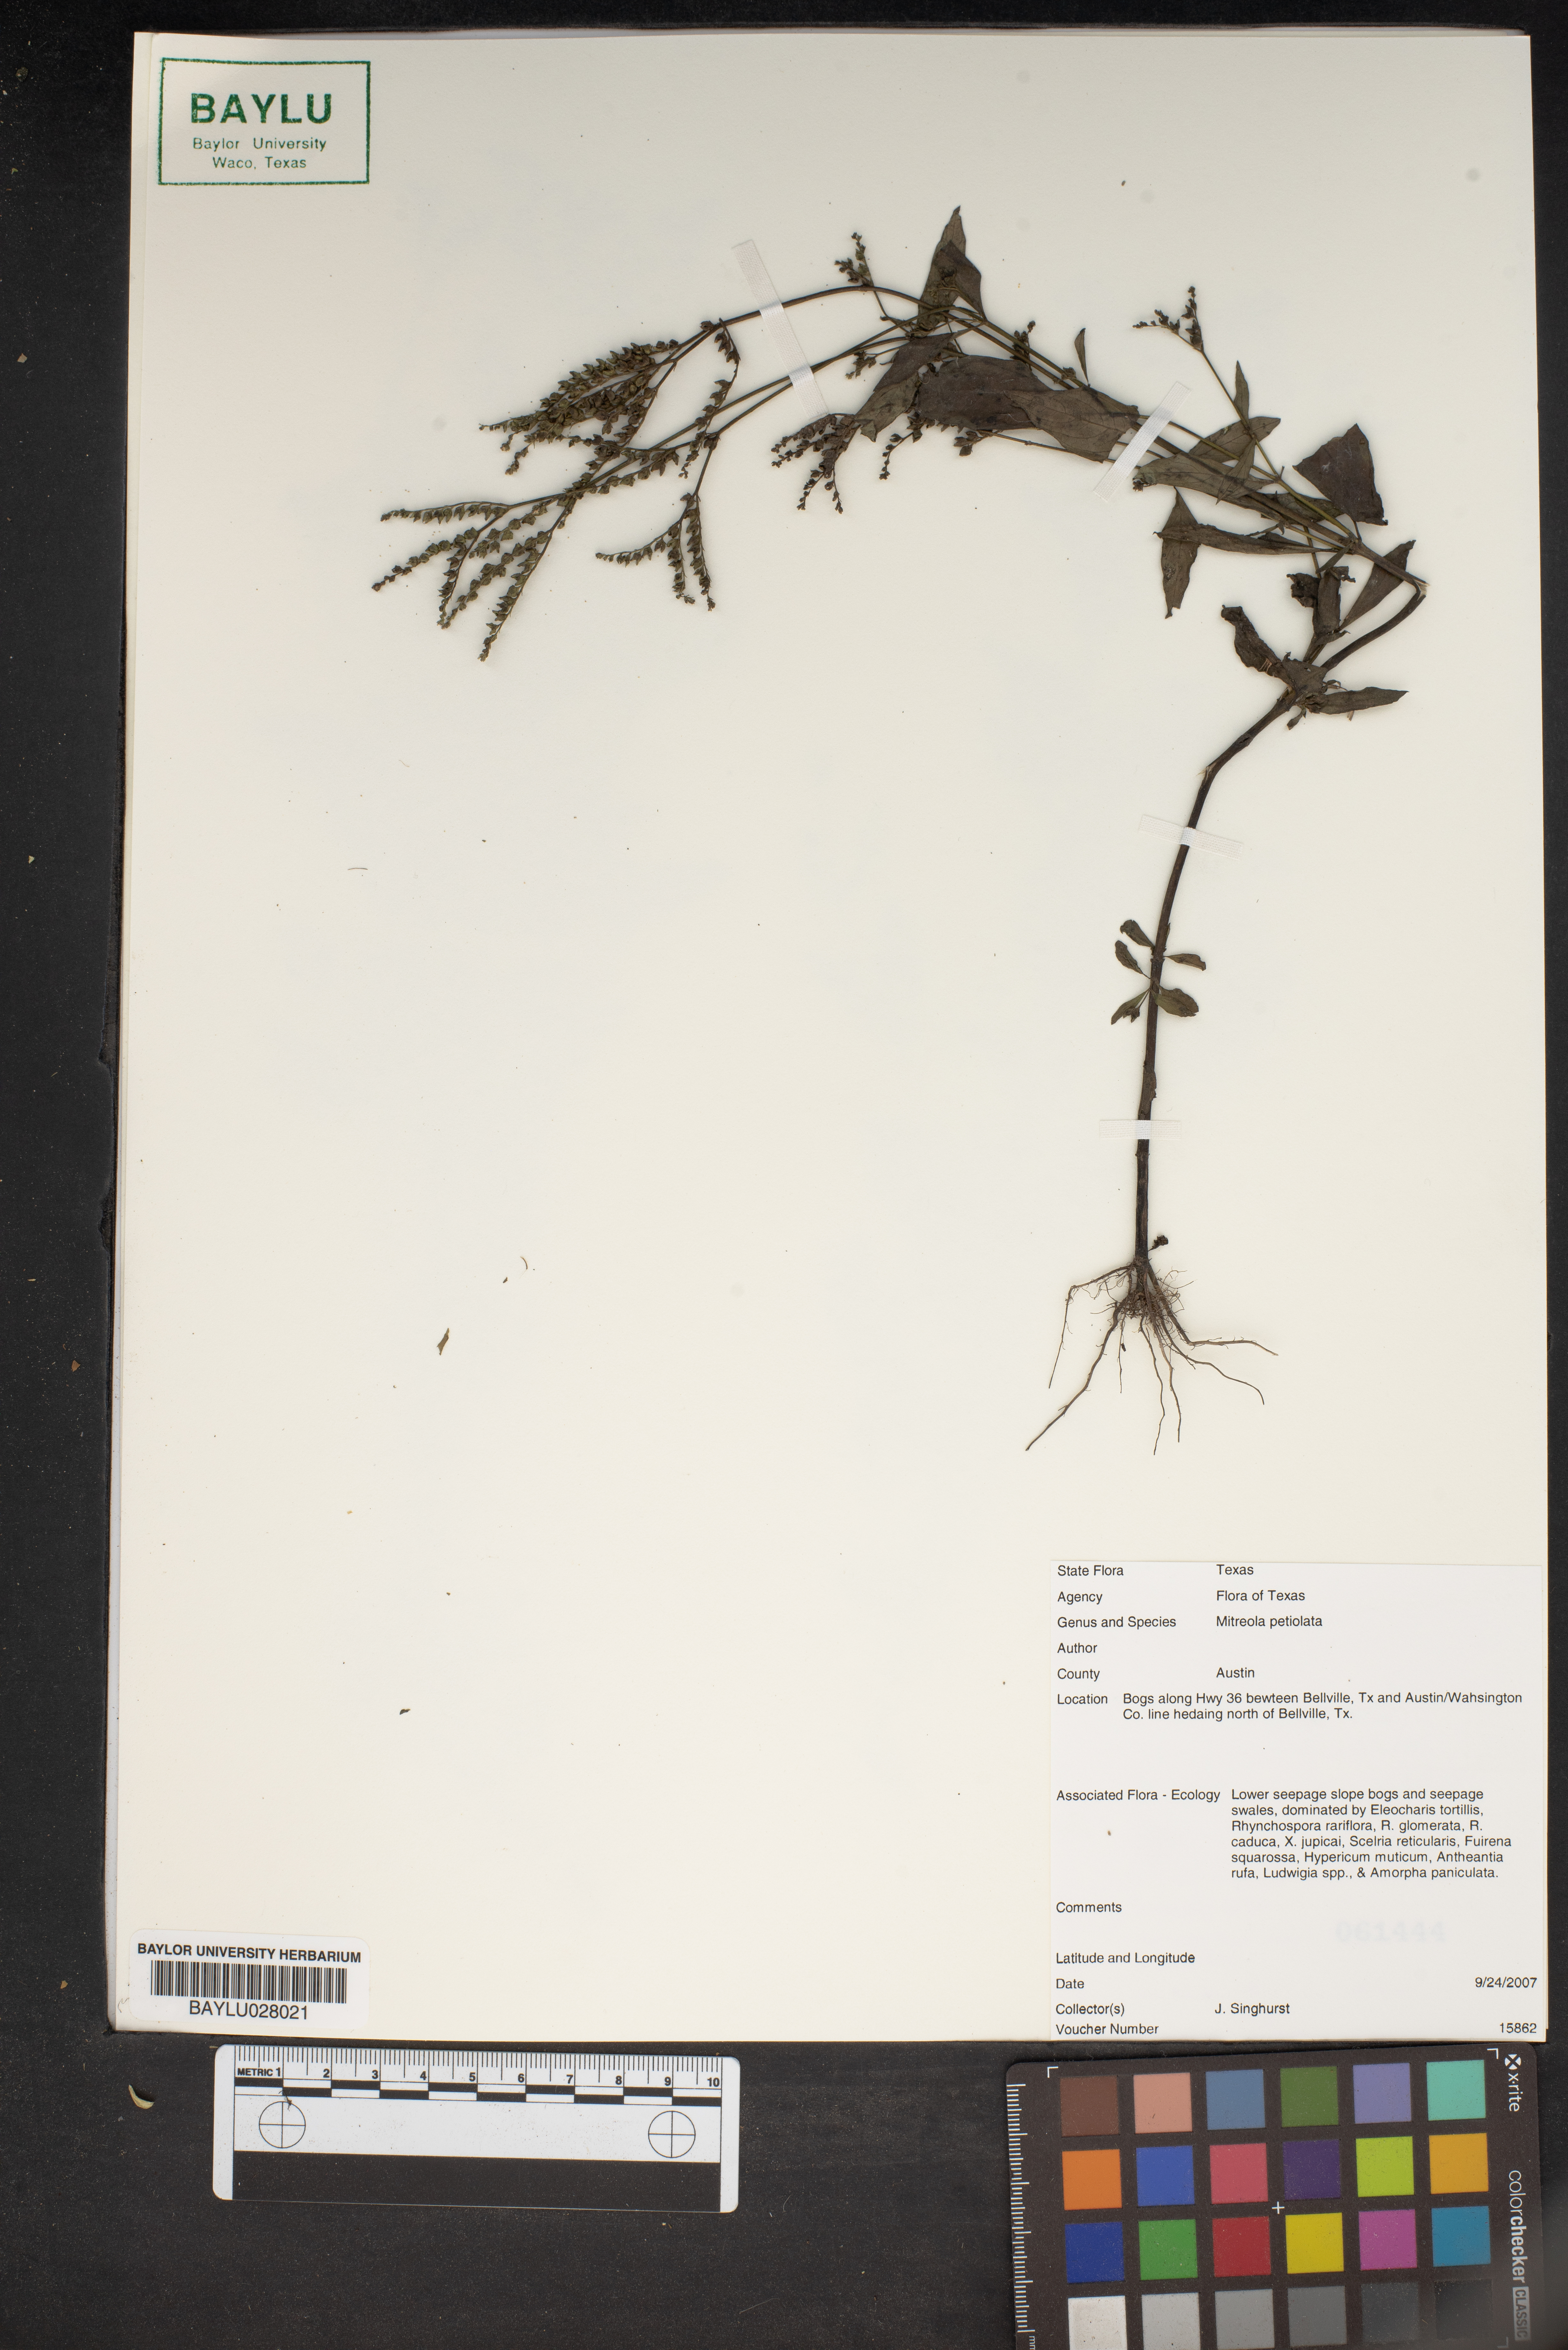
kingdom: Plantae
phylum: Tracheophyta
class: Magnoliopsida
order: Gentianales
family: Loganiaceae
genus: Mitreola
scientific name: Mitreola petiolata
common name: Lax hornpod
